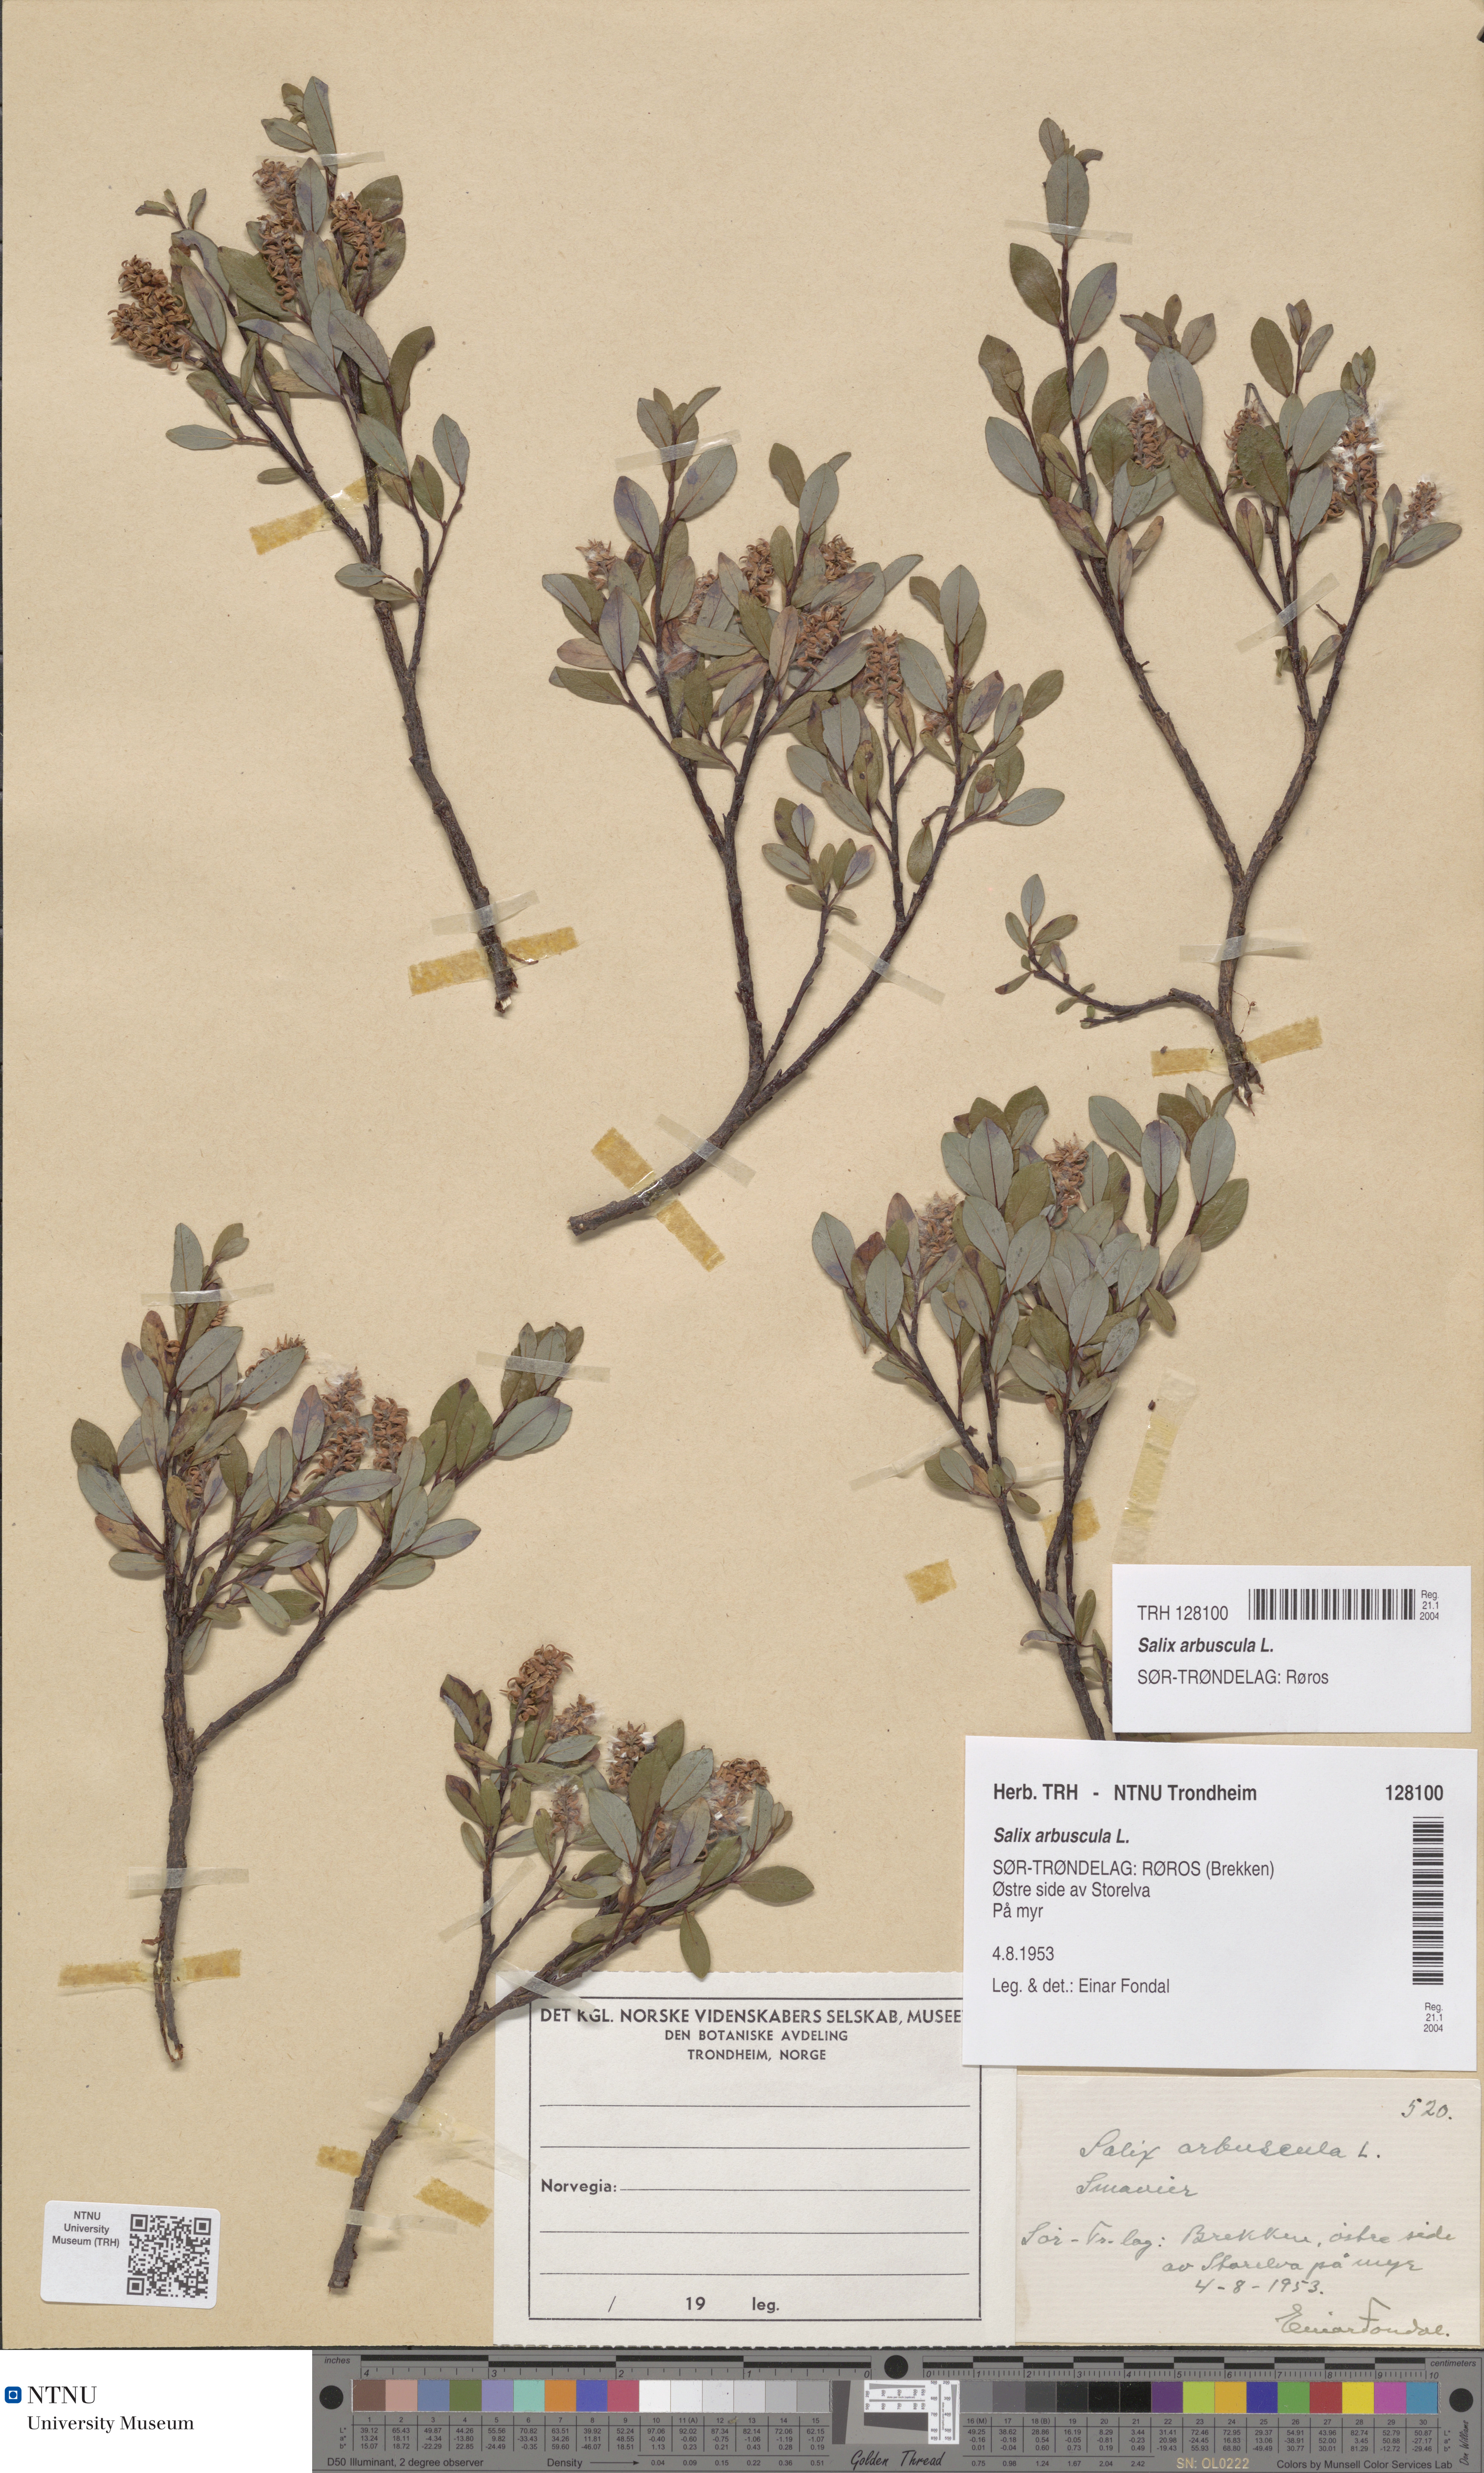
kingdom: Plantae
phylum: Tracheophyta
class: Magnoliopsida
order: Malpighiales
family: Salicaceae
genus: Salix
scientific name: Salix arbuscula
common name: Mountain willow
